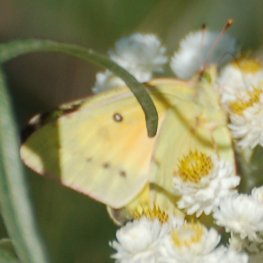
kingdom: Animalia
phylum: Arthropoda
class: Insecta
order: Lepidoptera
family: Pieridae
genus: Colias
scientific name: Colias eurytheme
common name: Orange Sulphur
